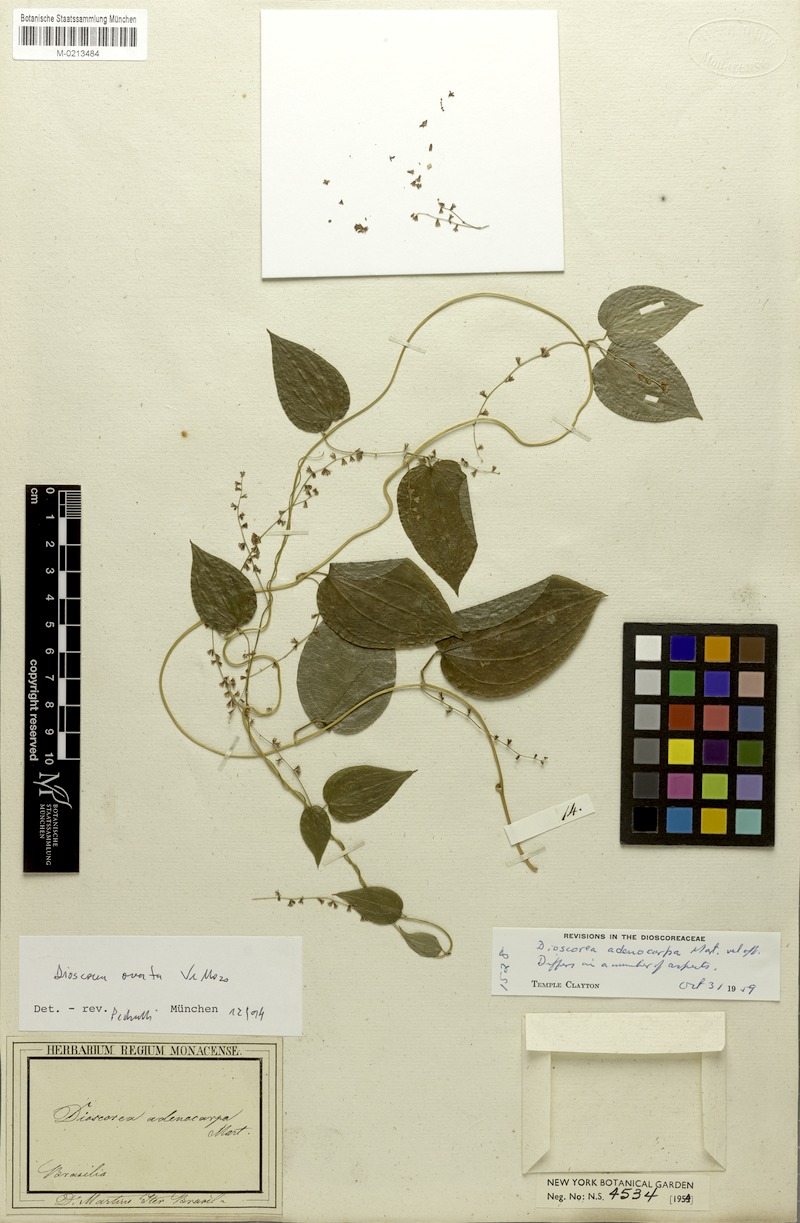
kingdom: Plantae
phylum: Tracheophyta
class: Liliopsida
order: Dioscoreales
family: Dioscoreaceae
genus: Dioscorea
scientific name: Dioscorea ovata
